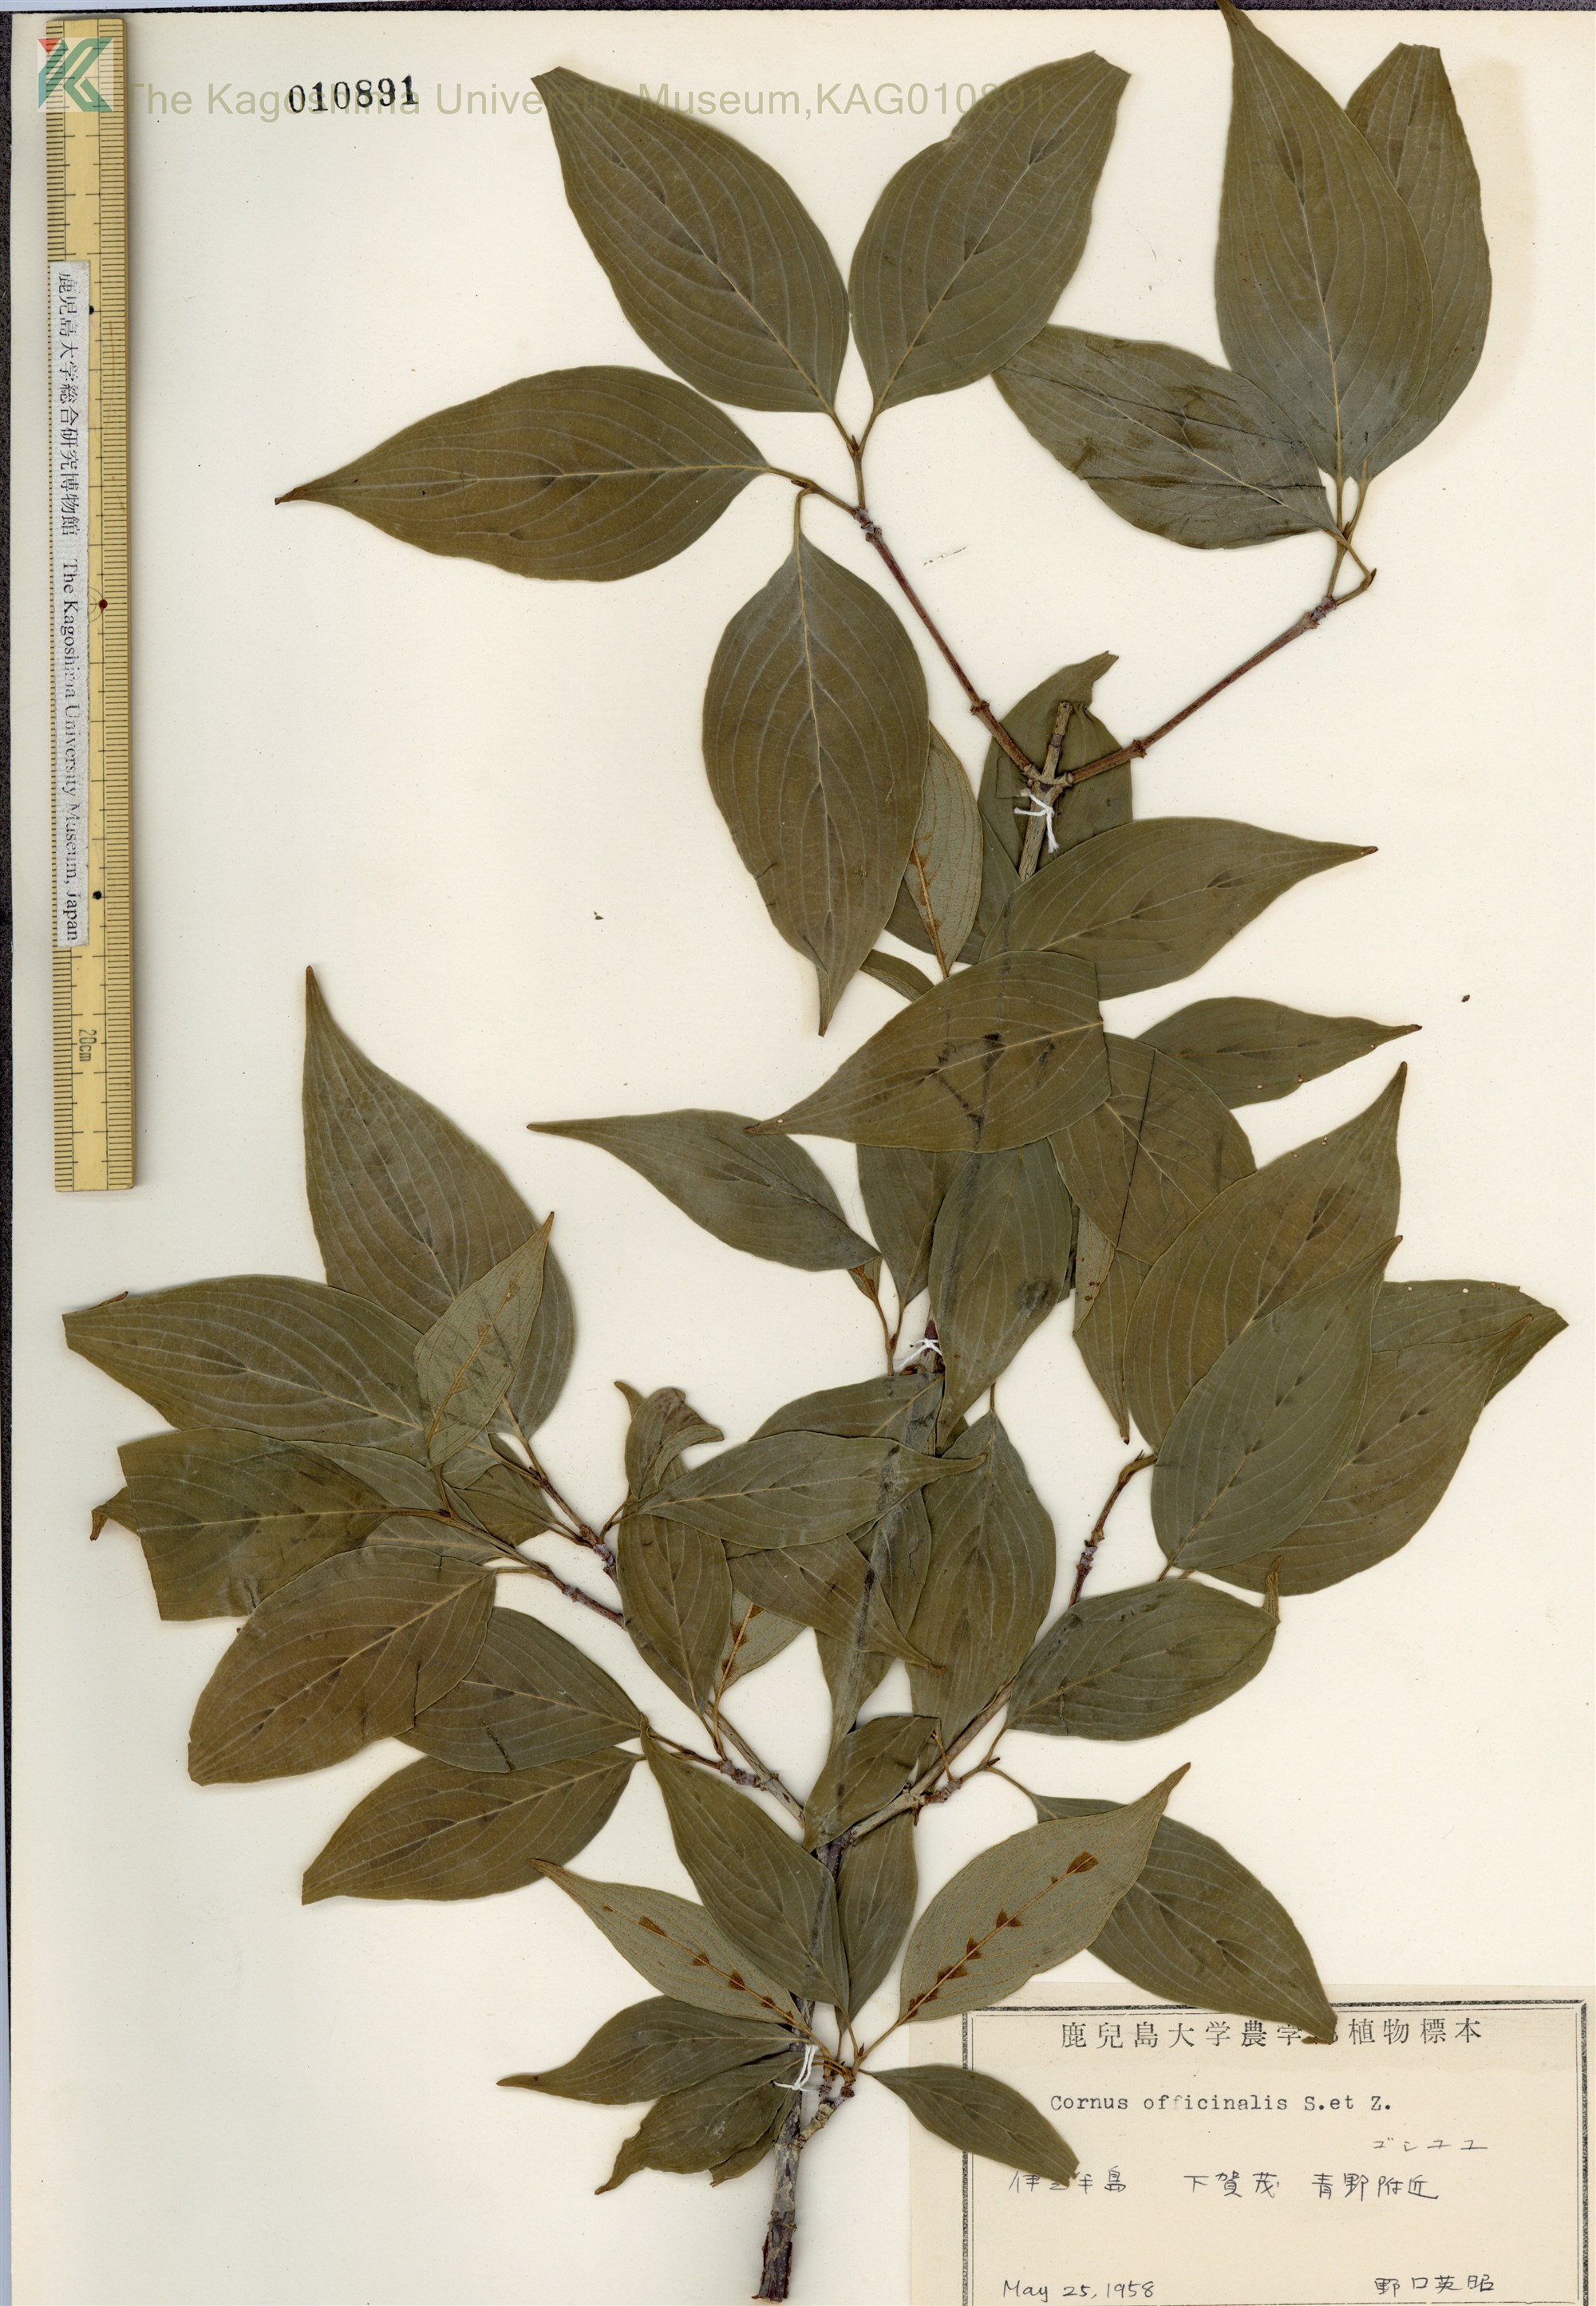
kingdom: Plantae
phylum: Tracheophyta
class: Magnoliopsida
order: Cornales
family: Cornaceae
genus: Cornus
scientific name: Cornus officinalis
